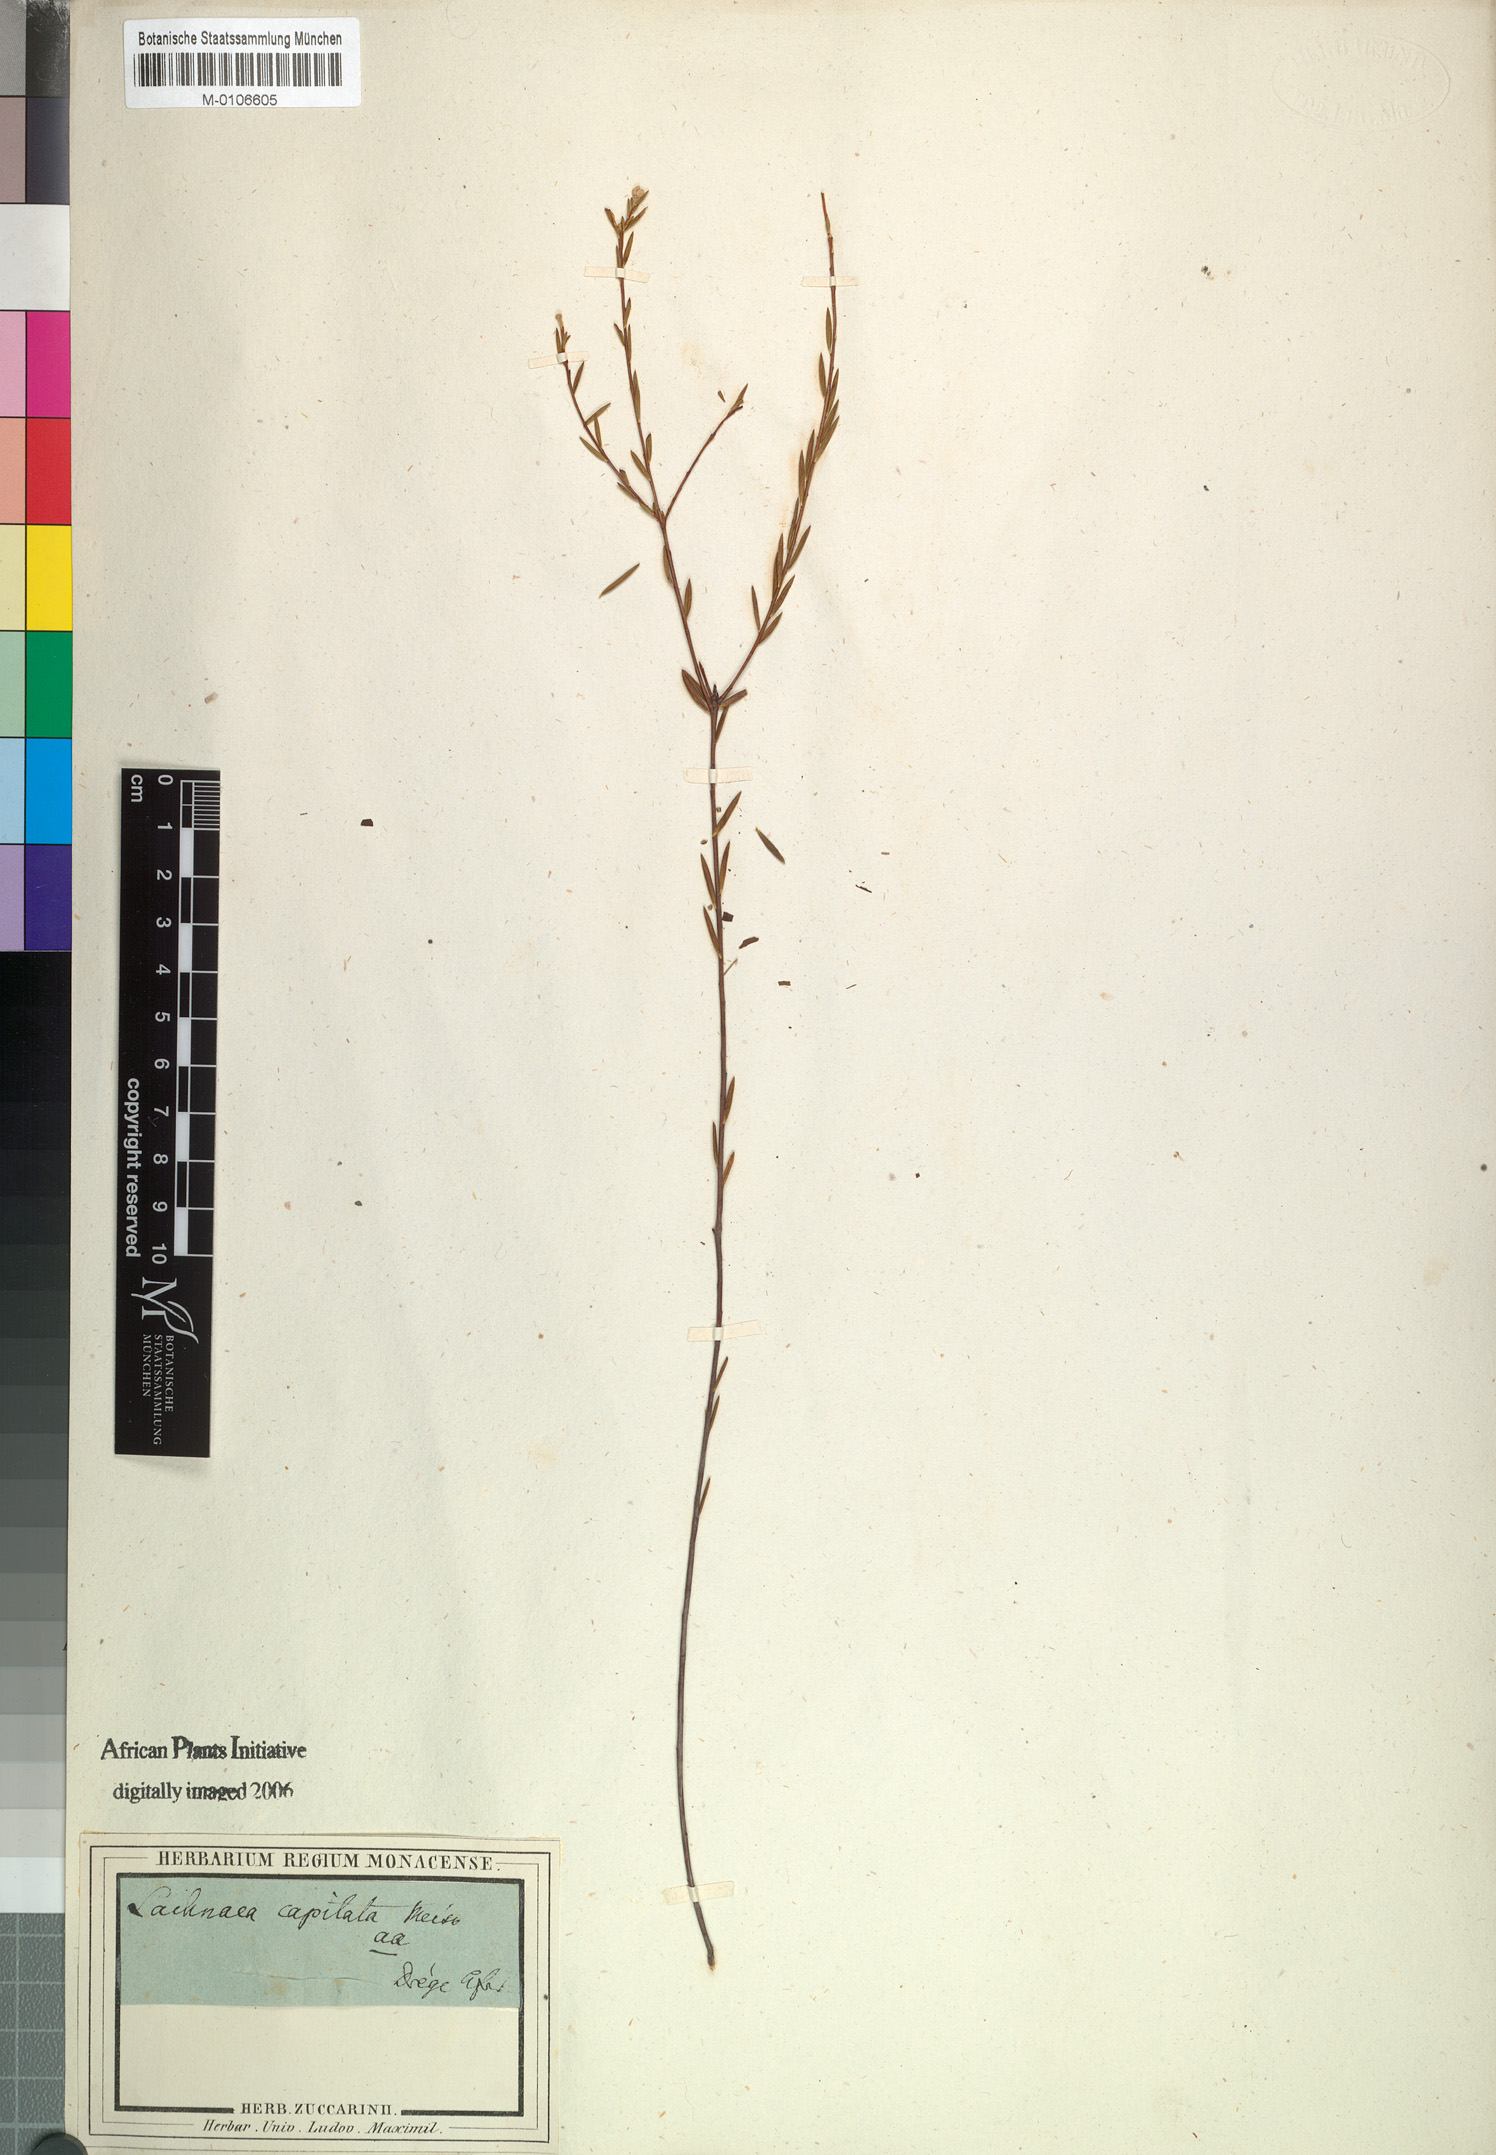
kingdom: Plantae
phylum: Tracheophyta
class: Magnoliopsida
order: Malvales
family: Thymelaeaceae
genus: Lachnaea
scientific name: Lachnaea capitata
